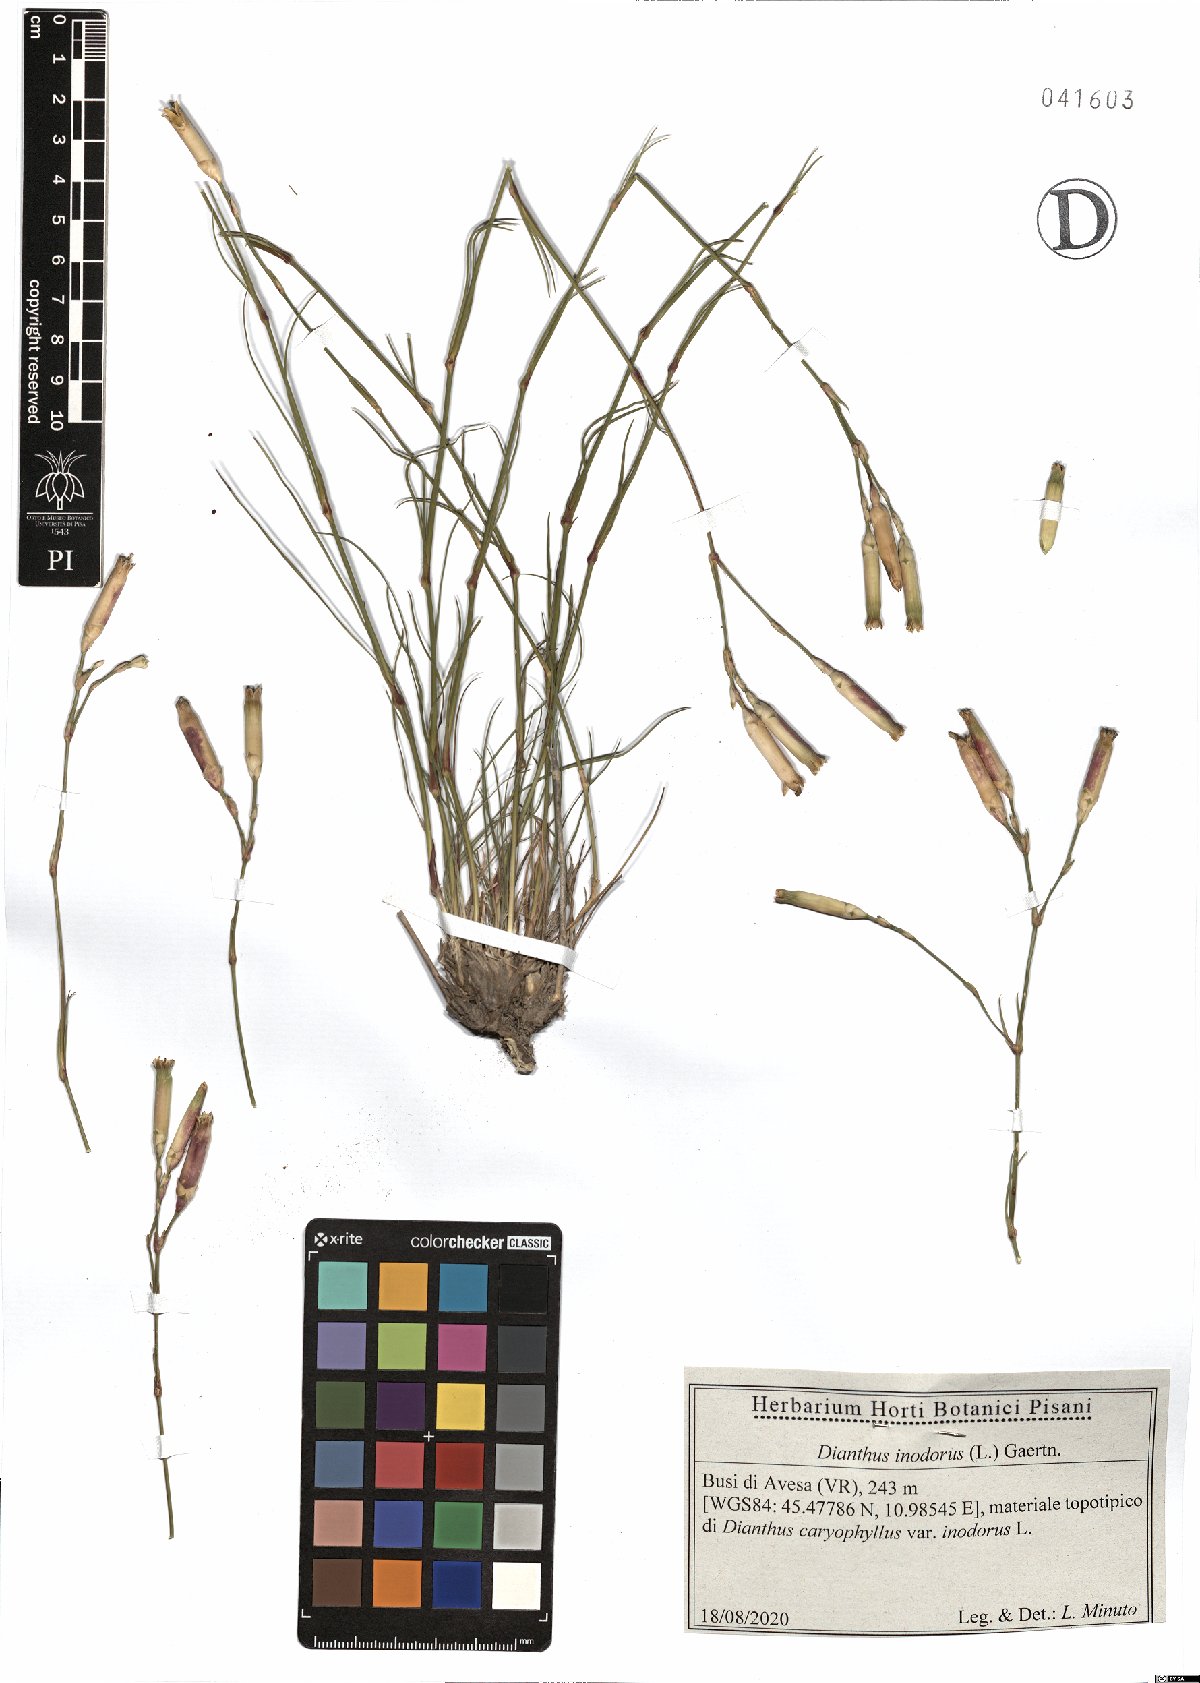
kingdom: Plantae
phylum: Tracheophyta
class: Magnoliopsida
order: Caryophyllales
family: Caryophyllaceae
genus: Dianthus
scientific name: Dianthus sylvestris
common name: Wood pink
